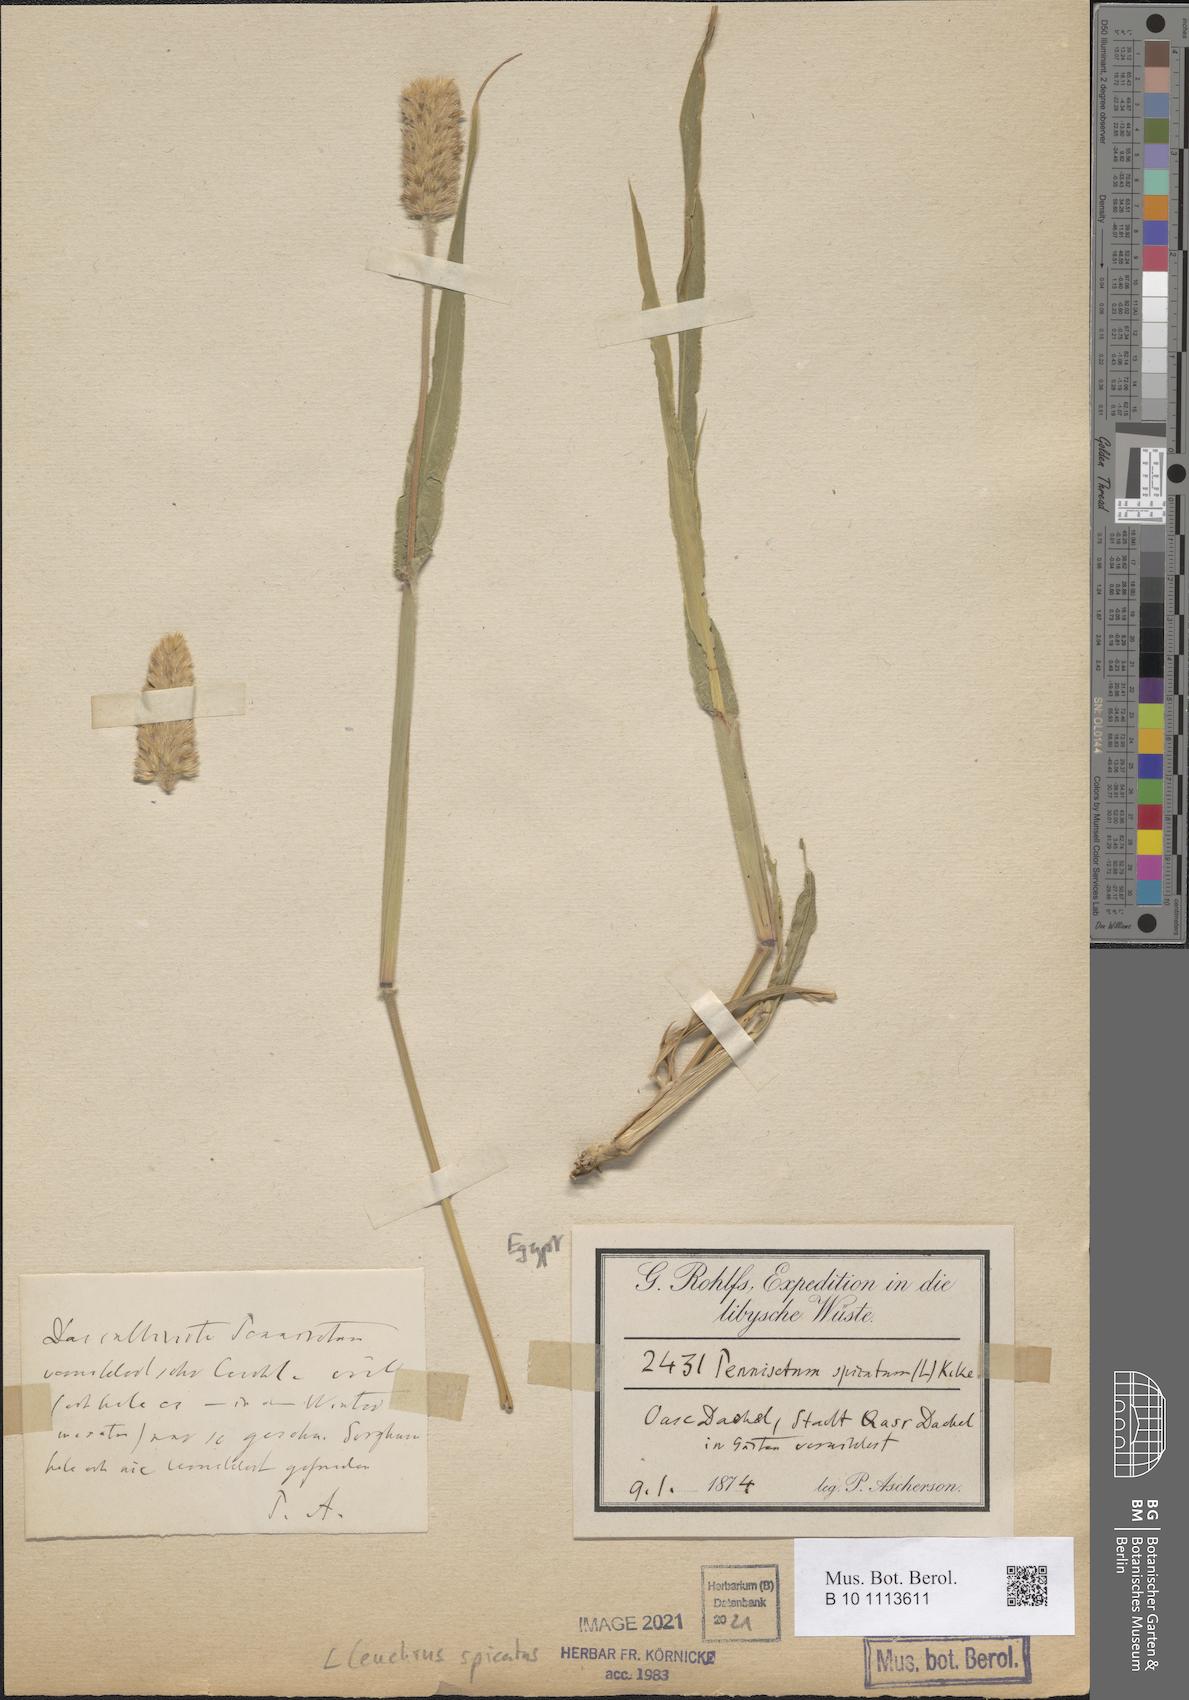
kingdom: Plantae
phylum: Tracheophyta
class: Liliopsida
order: Poales
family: Poaceae
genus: Cenchrus
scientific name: Cenchrus americanus
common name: Pearl millet
